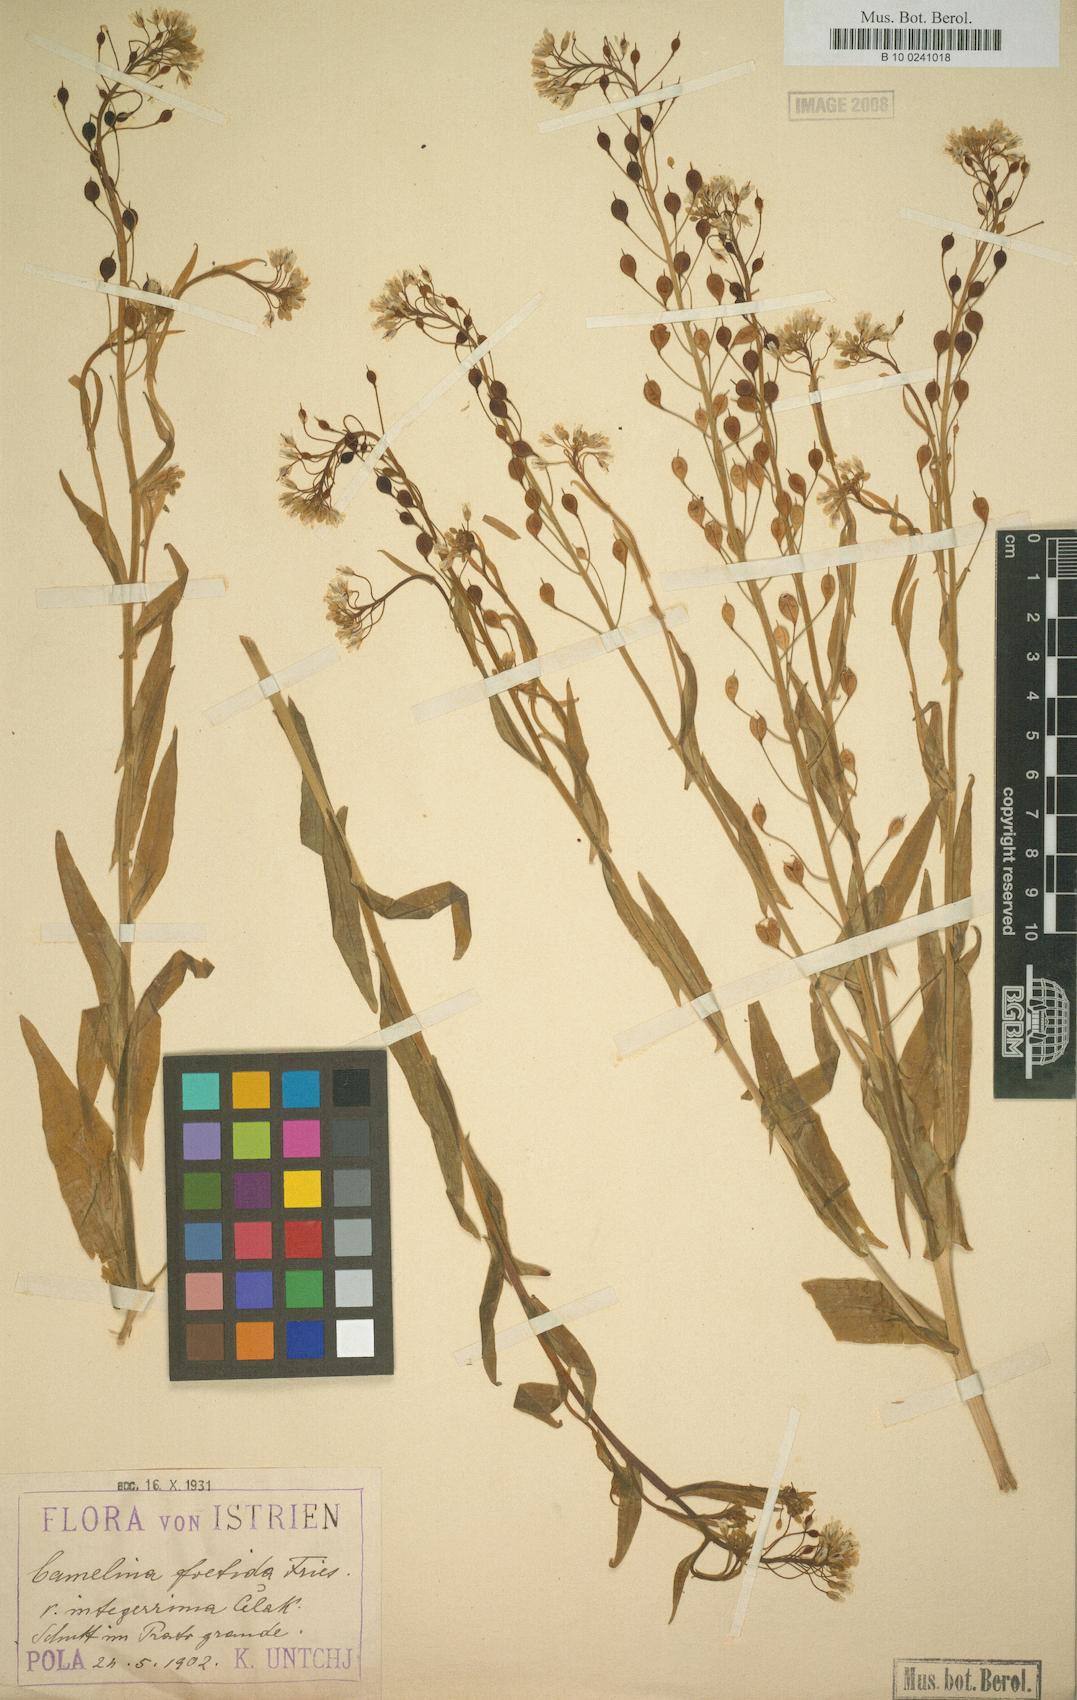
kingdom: Plantae
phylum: Tracheophyta
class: Magnoliopsida
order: Brassicales
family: Brassicaceae
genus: Camelina
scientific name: Camelina alyssum
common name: Gold-of-pleasure
